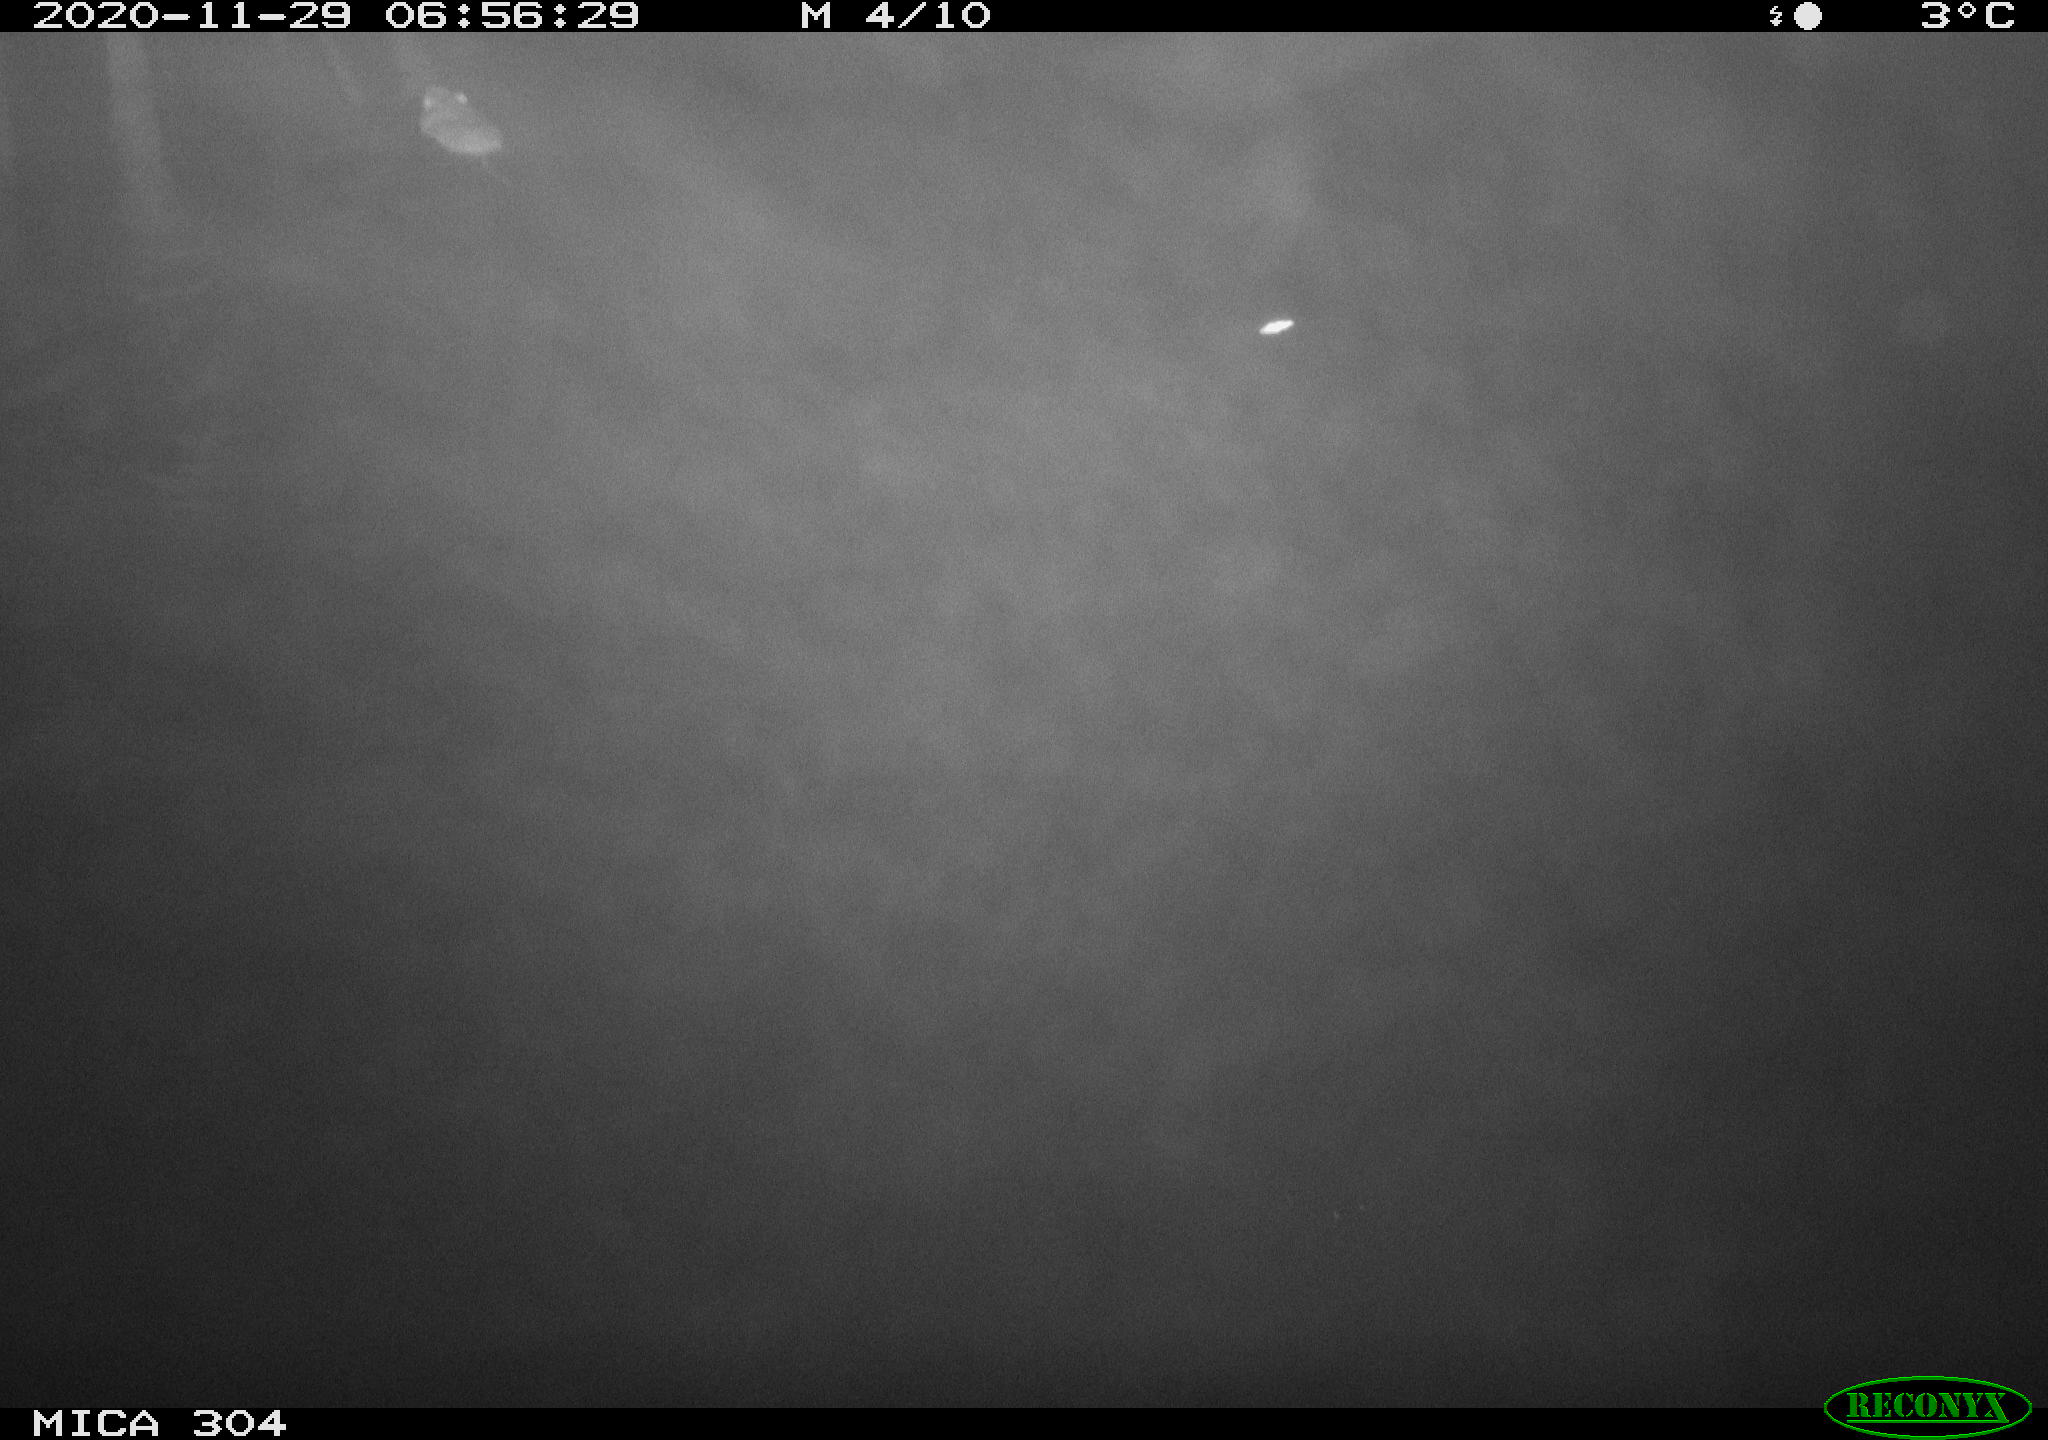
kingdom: Animalia
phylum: Chordata
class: Mammalia
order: Rodentia
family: Muridae
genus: Rattus
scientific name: Rattus norvegicus
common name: Brown rat
